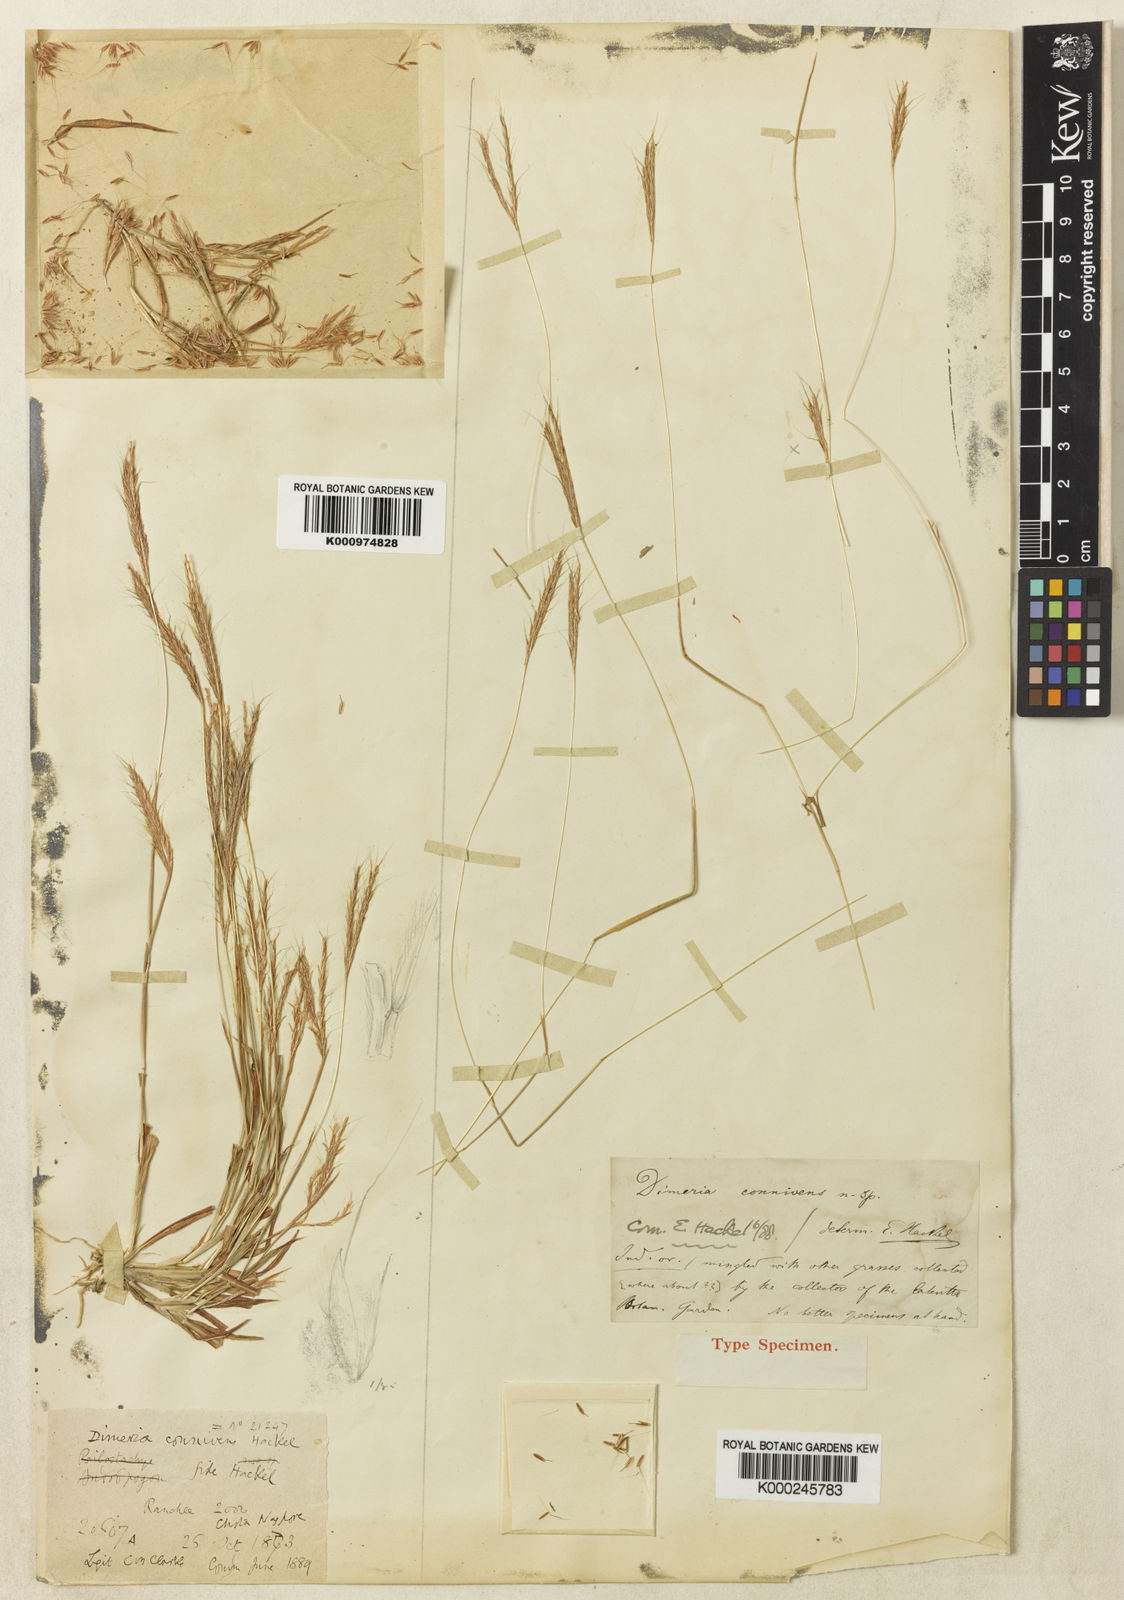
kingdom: Plantae
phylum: Tracheophyta
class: Liliopsida
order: Poales
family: Poaceae
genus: Dimeria
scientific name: Dimeria connivens
